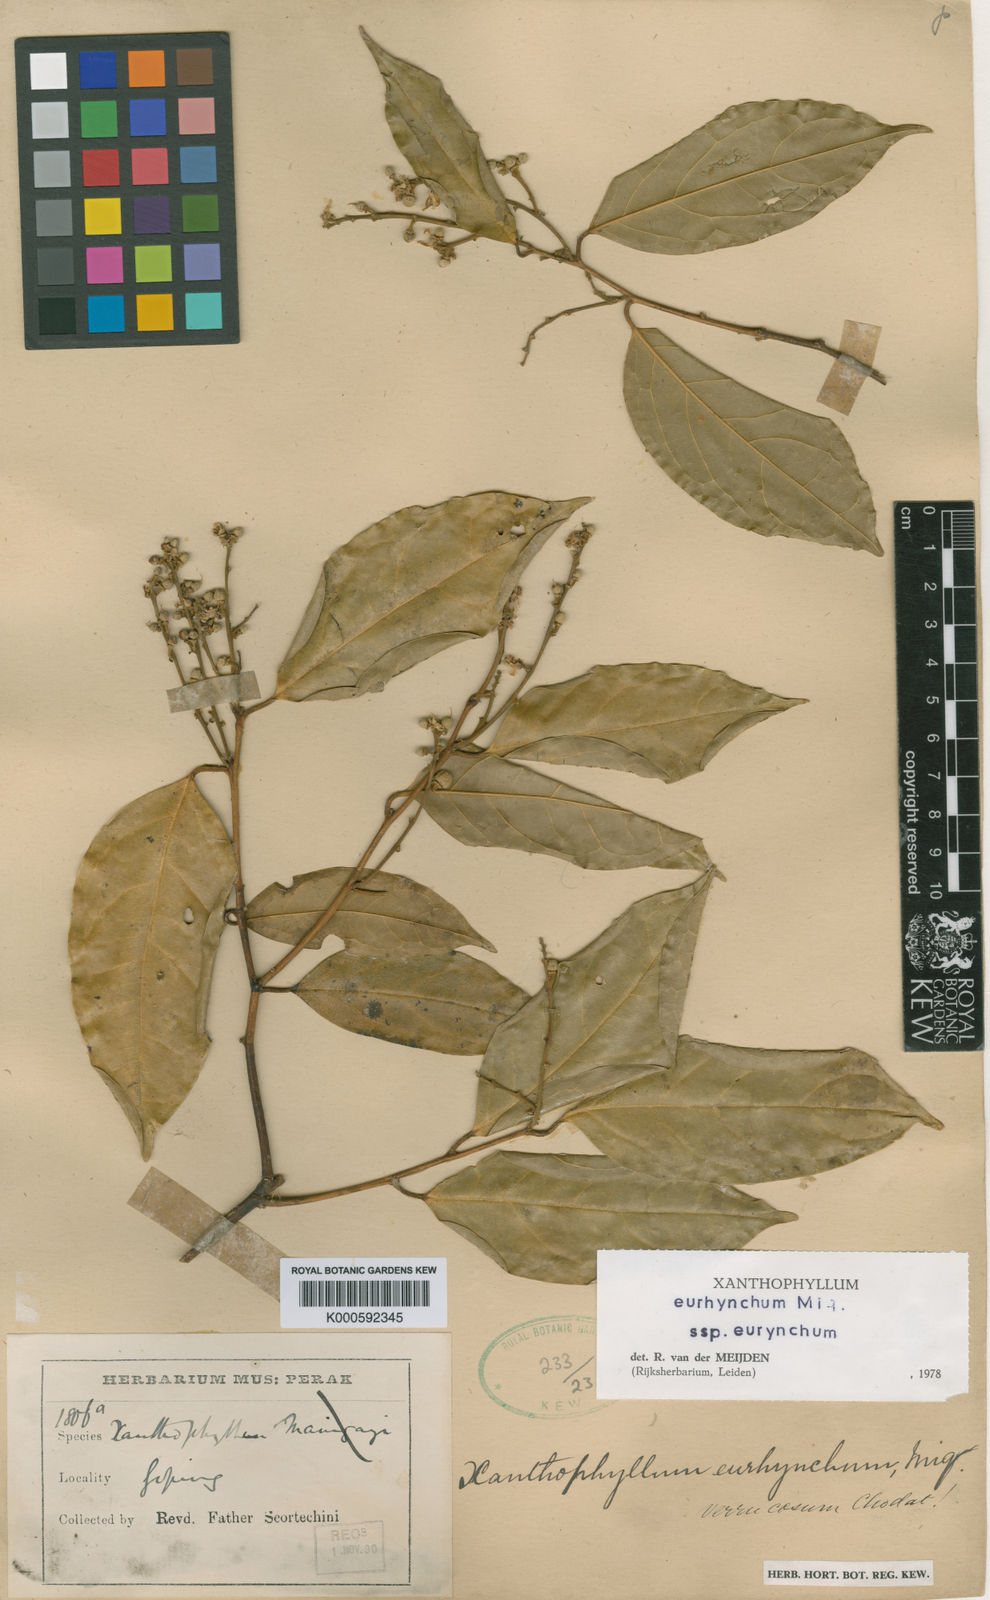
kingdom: Plantae
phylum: Tracheophyta
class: Magnoliopsida
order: Fabales
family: Polygalaceae
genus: Xanthophyllum
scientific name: Xanthophyllum eurhynchum
